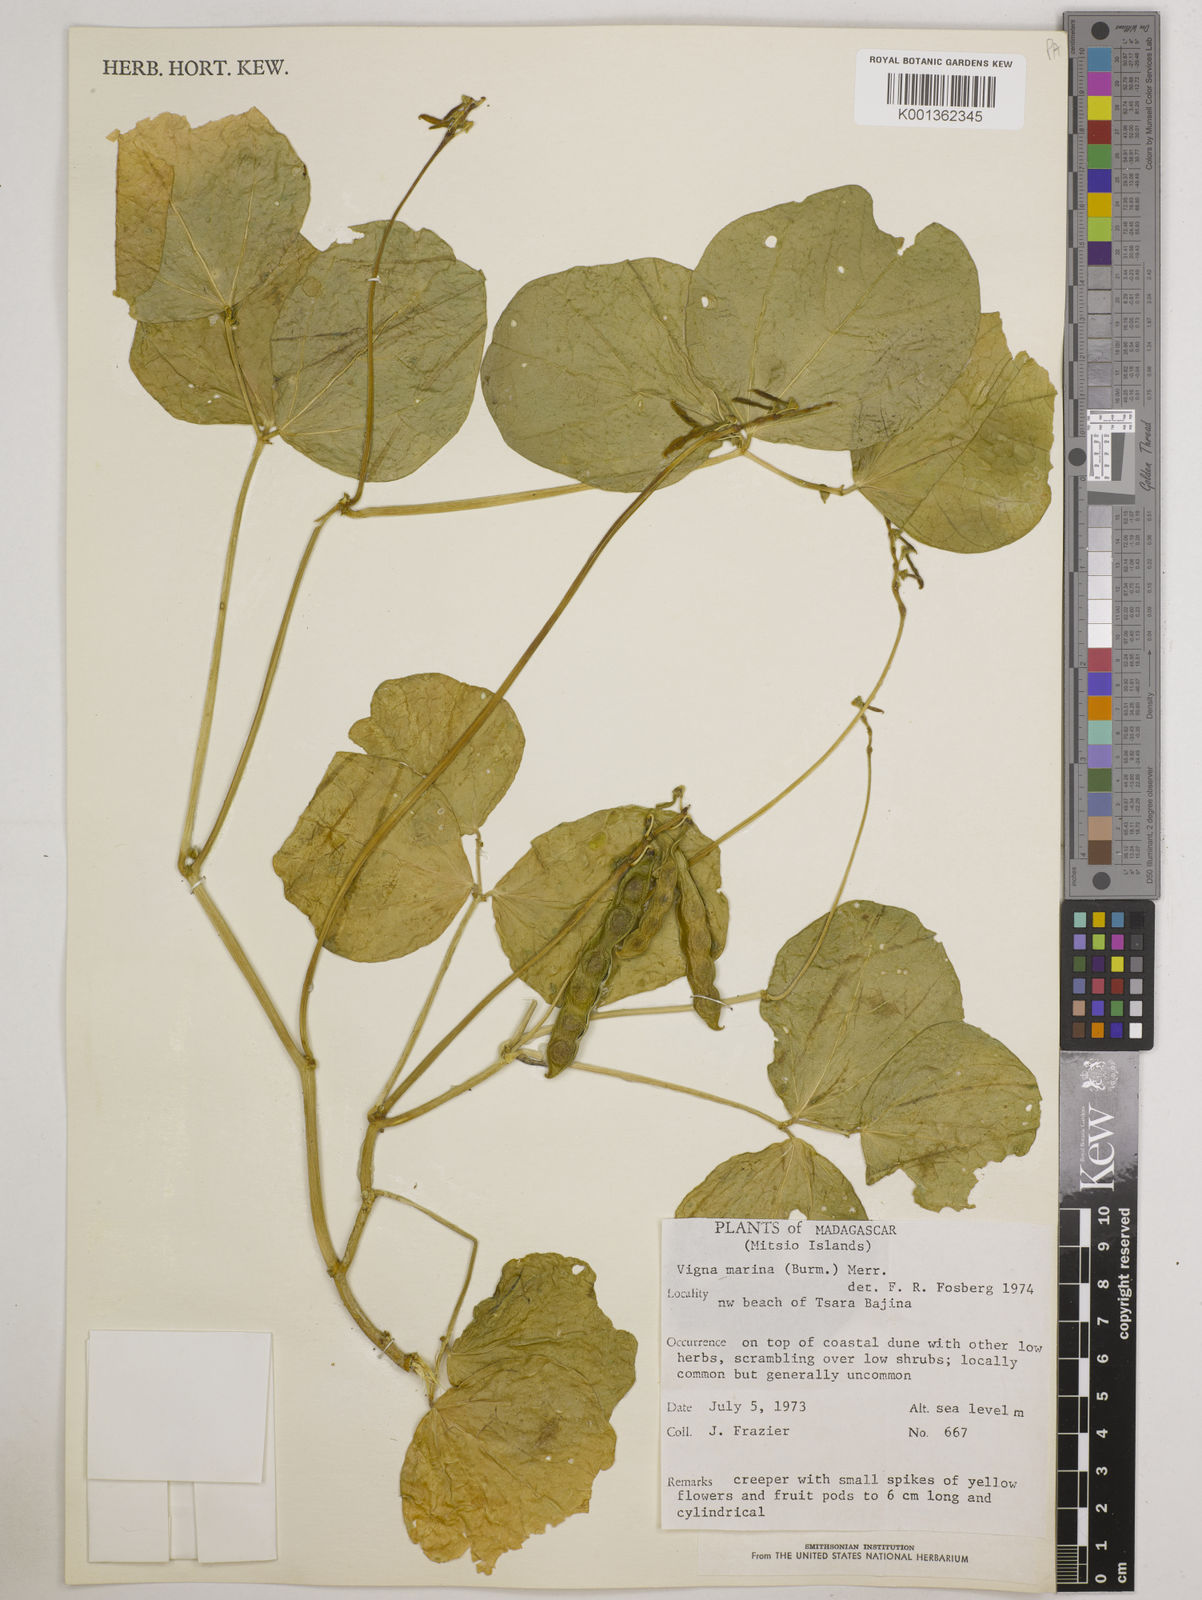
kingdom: Plantae
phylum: Tracheophyta
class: Magnoliopsida
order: Fabales
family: Fabaceae
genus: Vigna
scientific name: Vigna marina
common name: Dune-bean
